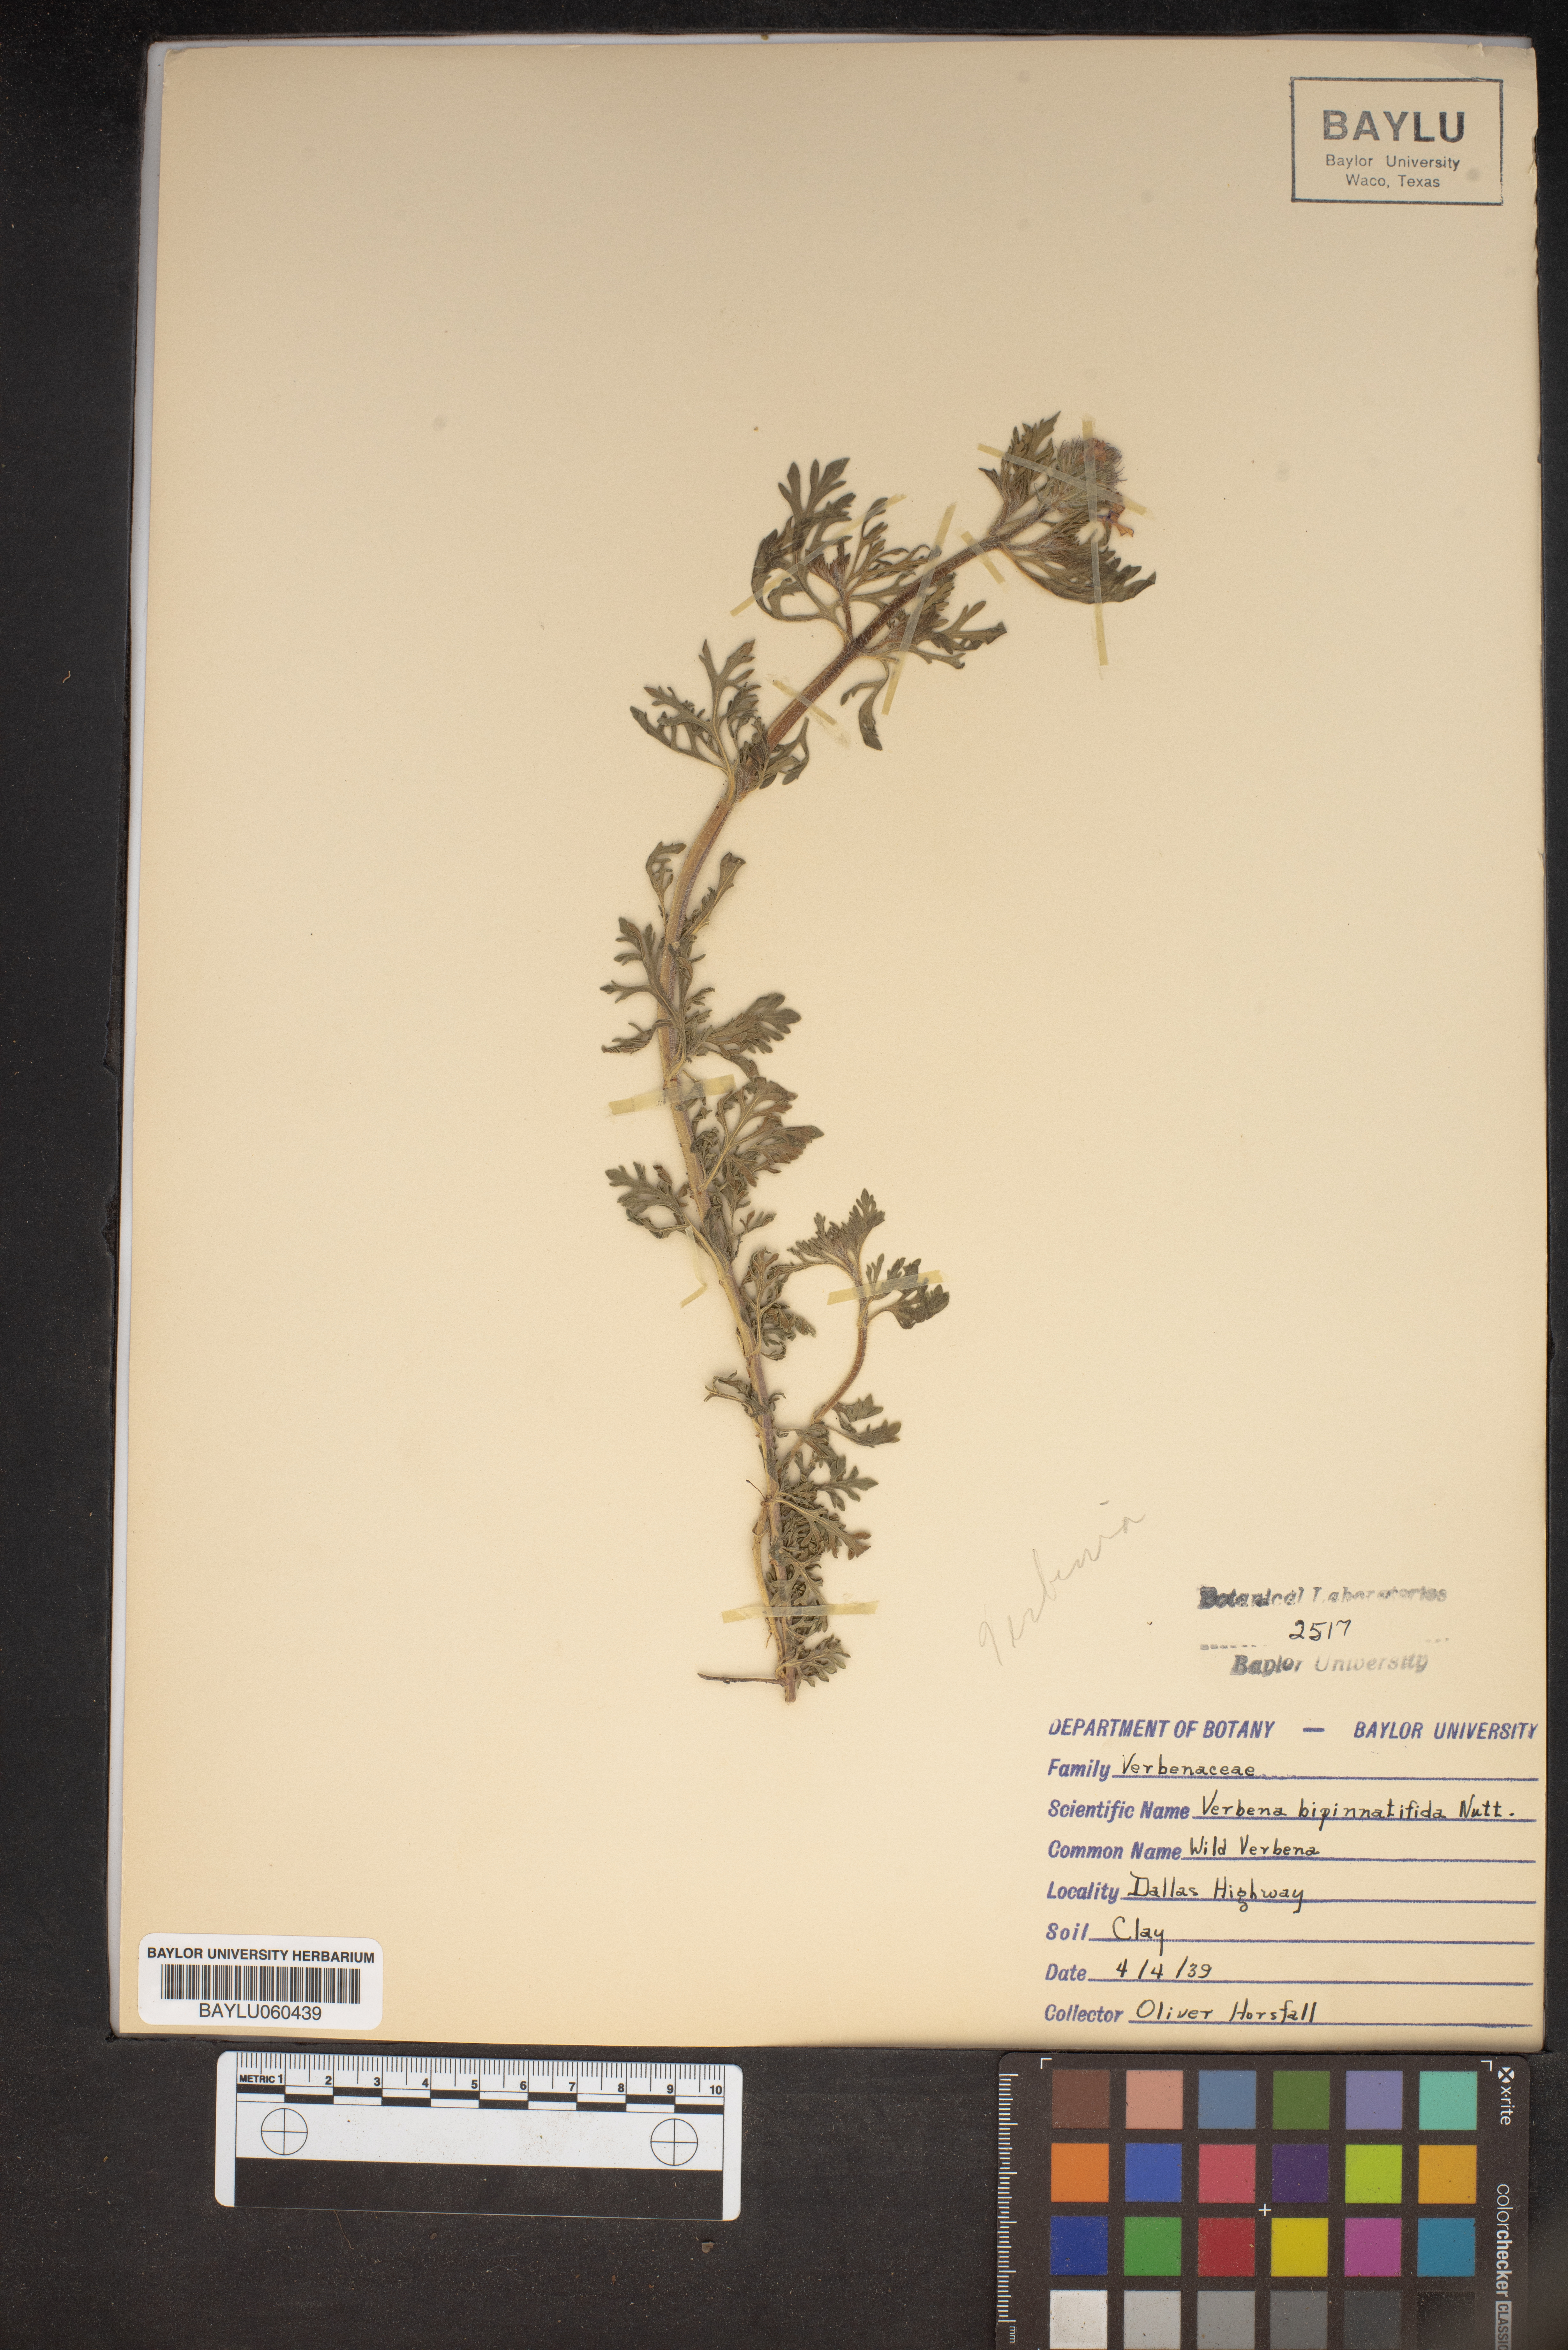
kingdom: Plantae
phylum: Tracheophyta
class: Magnoliopsida
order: Lamiales
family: Verbenaceae
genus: Verbena
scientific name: Verbena bipinnatifida
